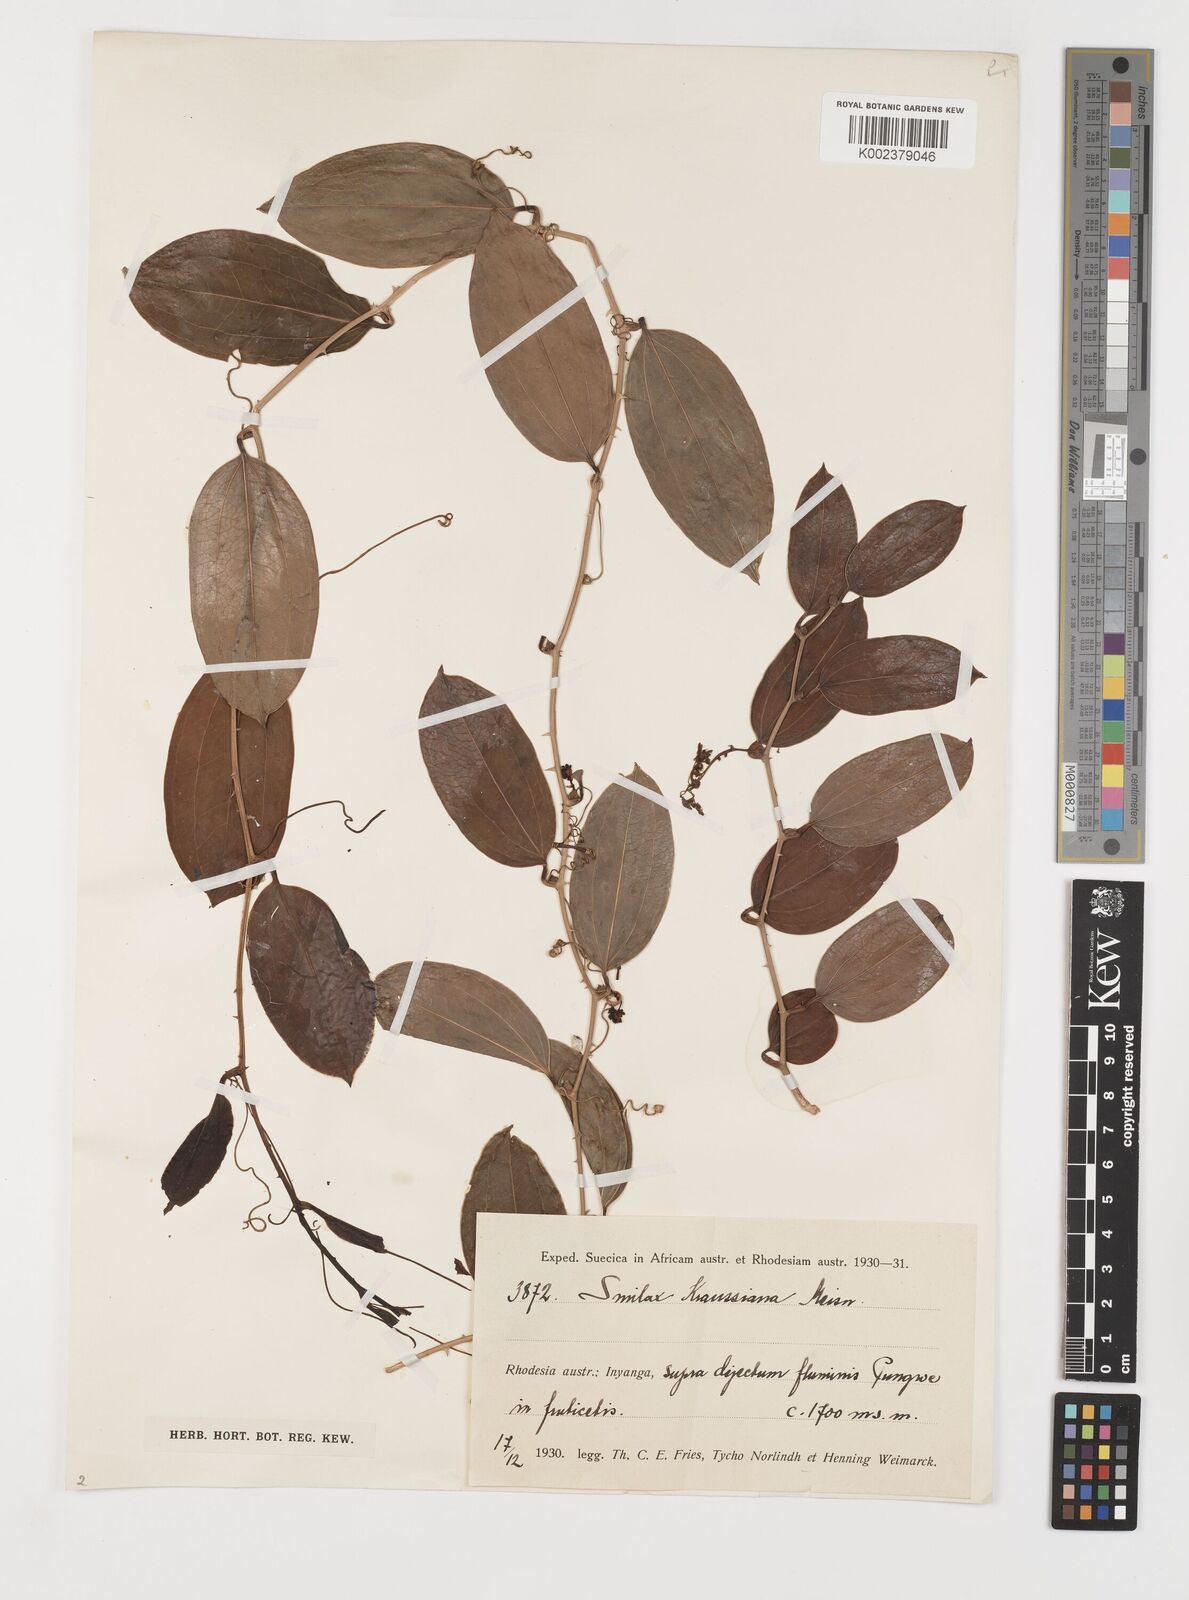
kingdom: Plantae
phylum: Tracheophyta
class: Liliopsida
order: Liliales
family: Smilacaceae
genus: Smilax
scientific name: Smilax anceps
